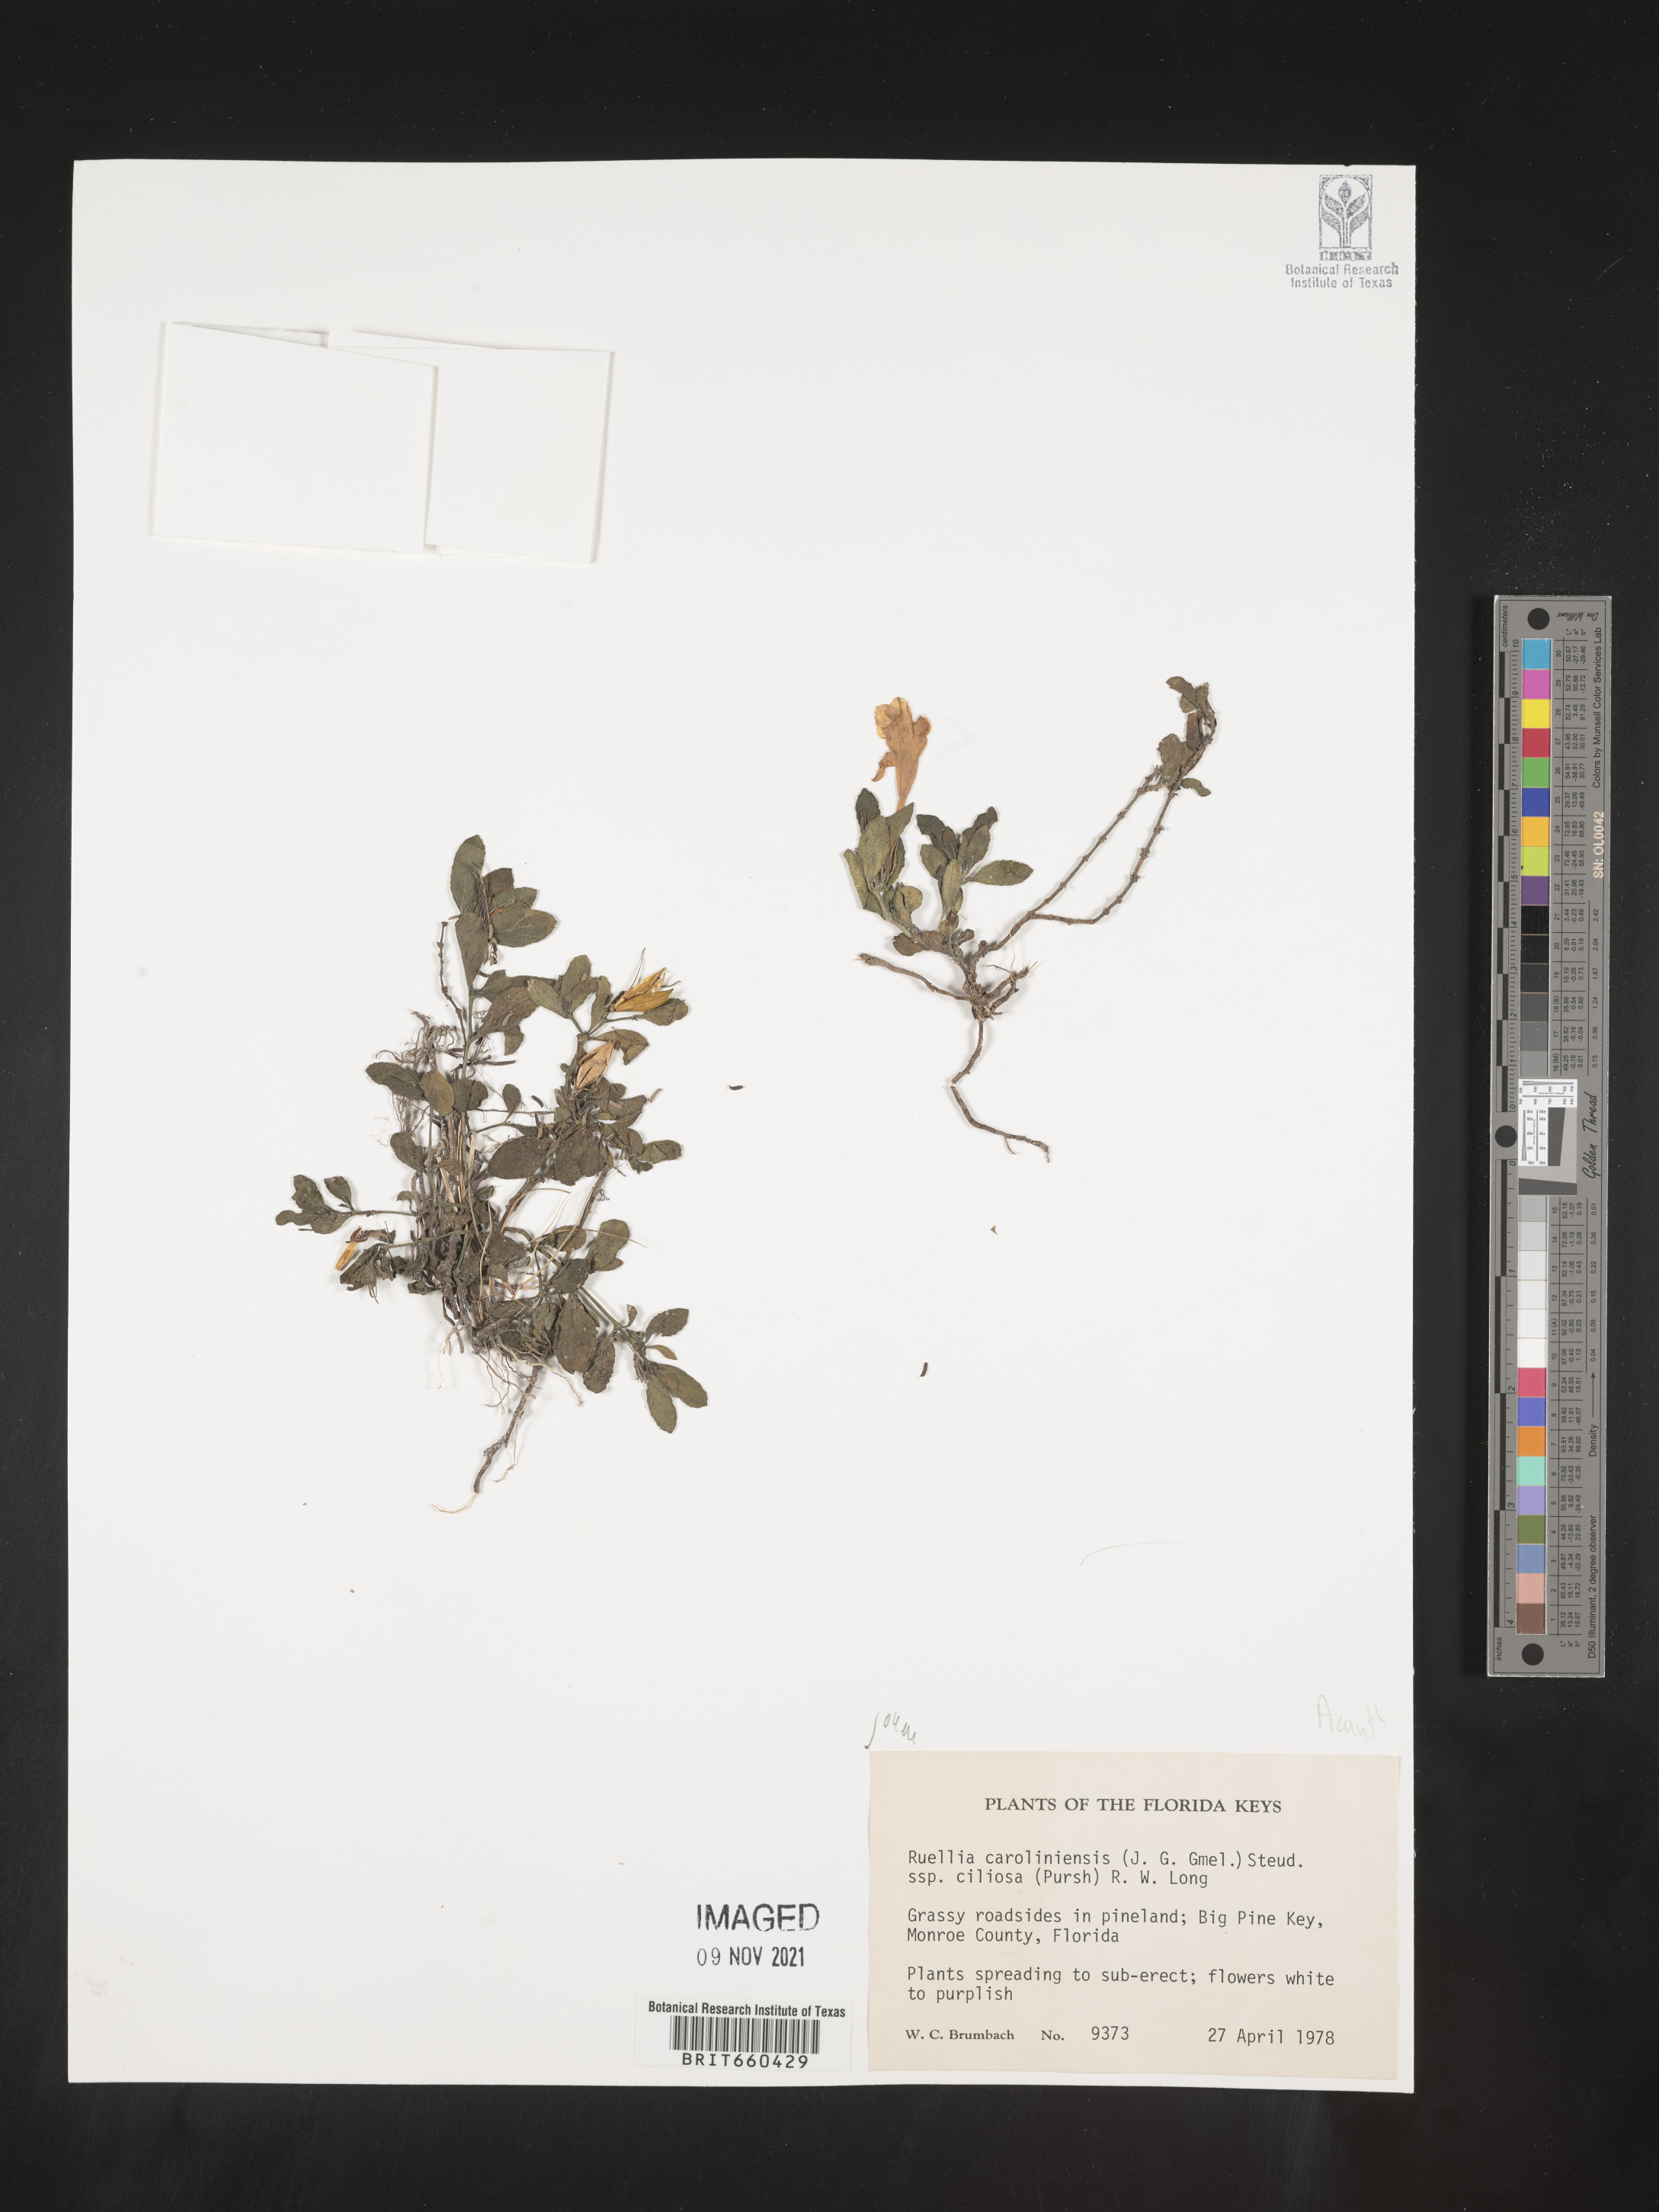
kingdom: Plantae
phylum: Tracheophyta
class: Magnoliopsida
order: Lamiales
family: Acanthaceae
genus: Ruellia
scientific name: Ruellia caroliniensis
